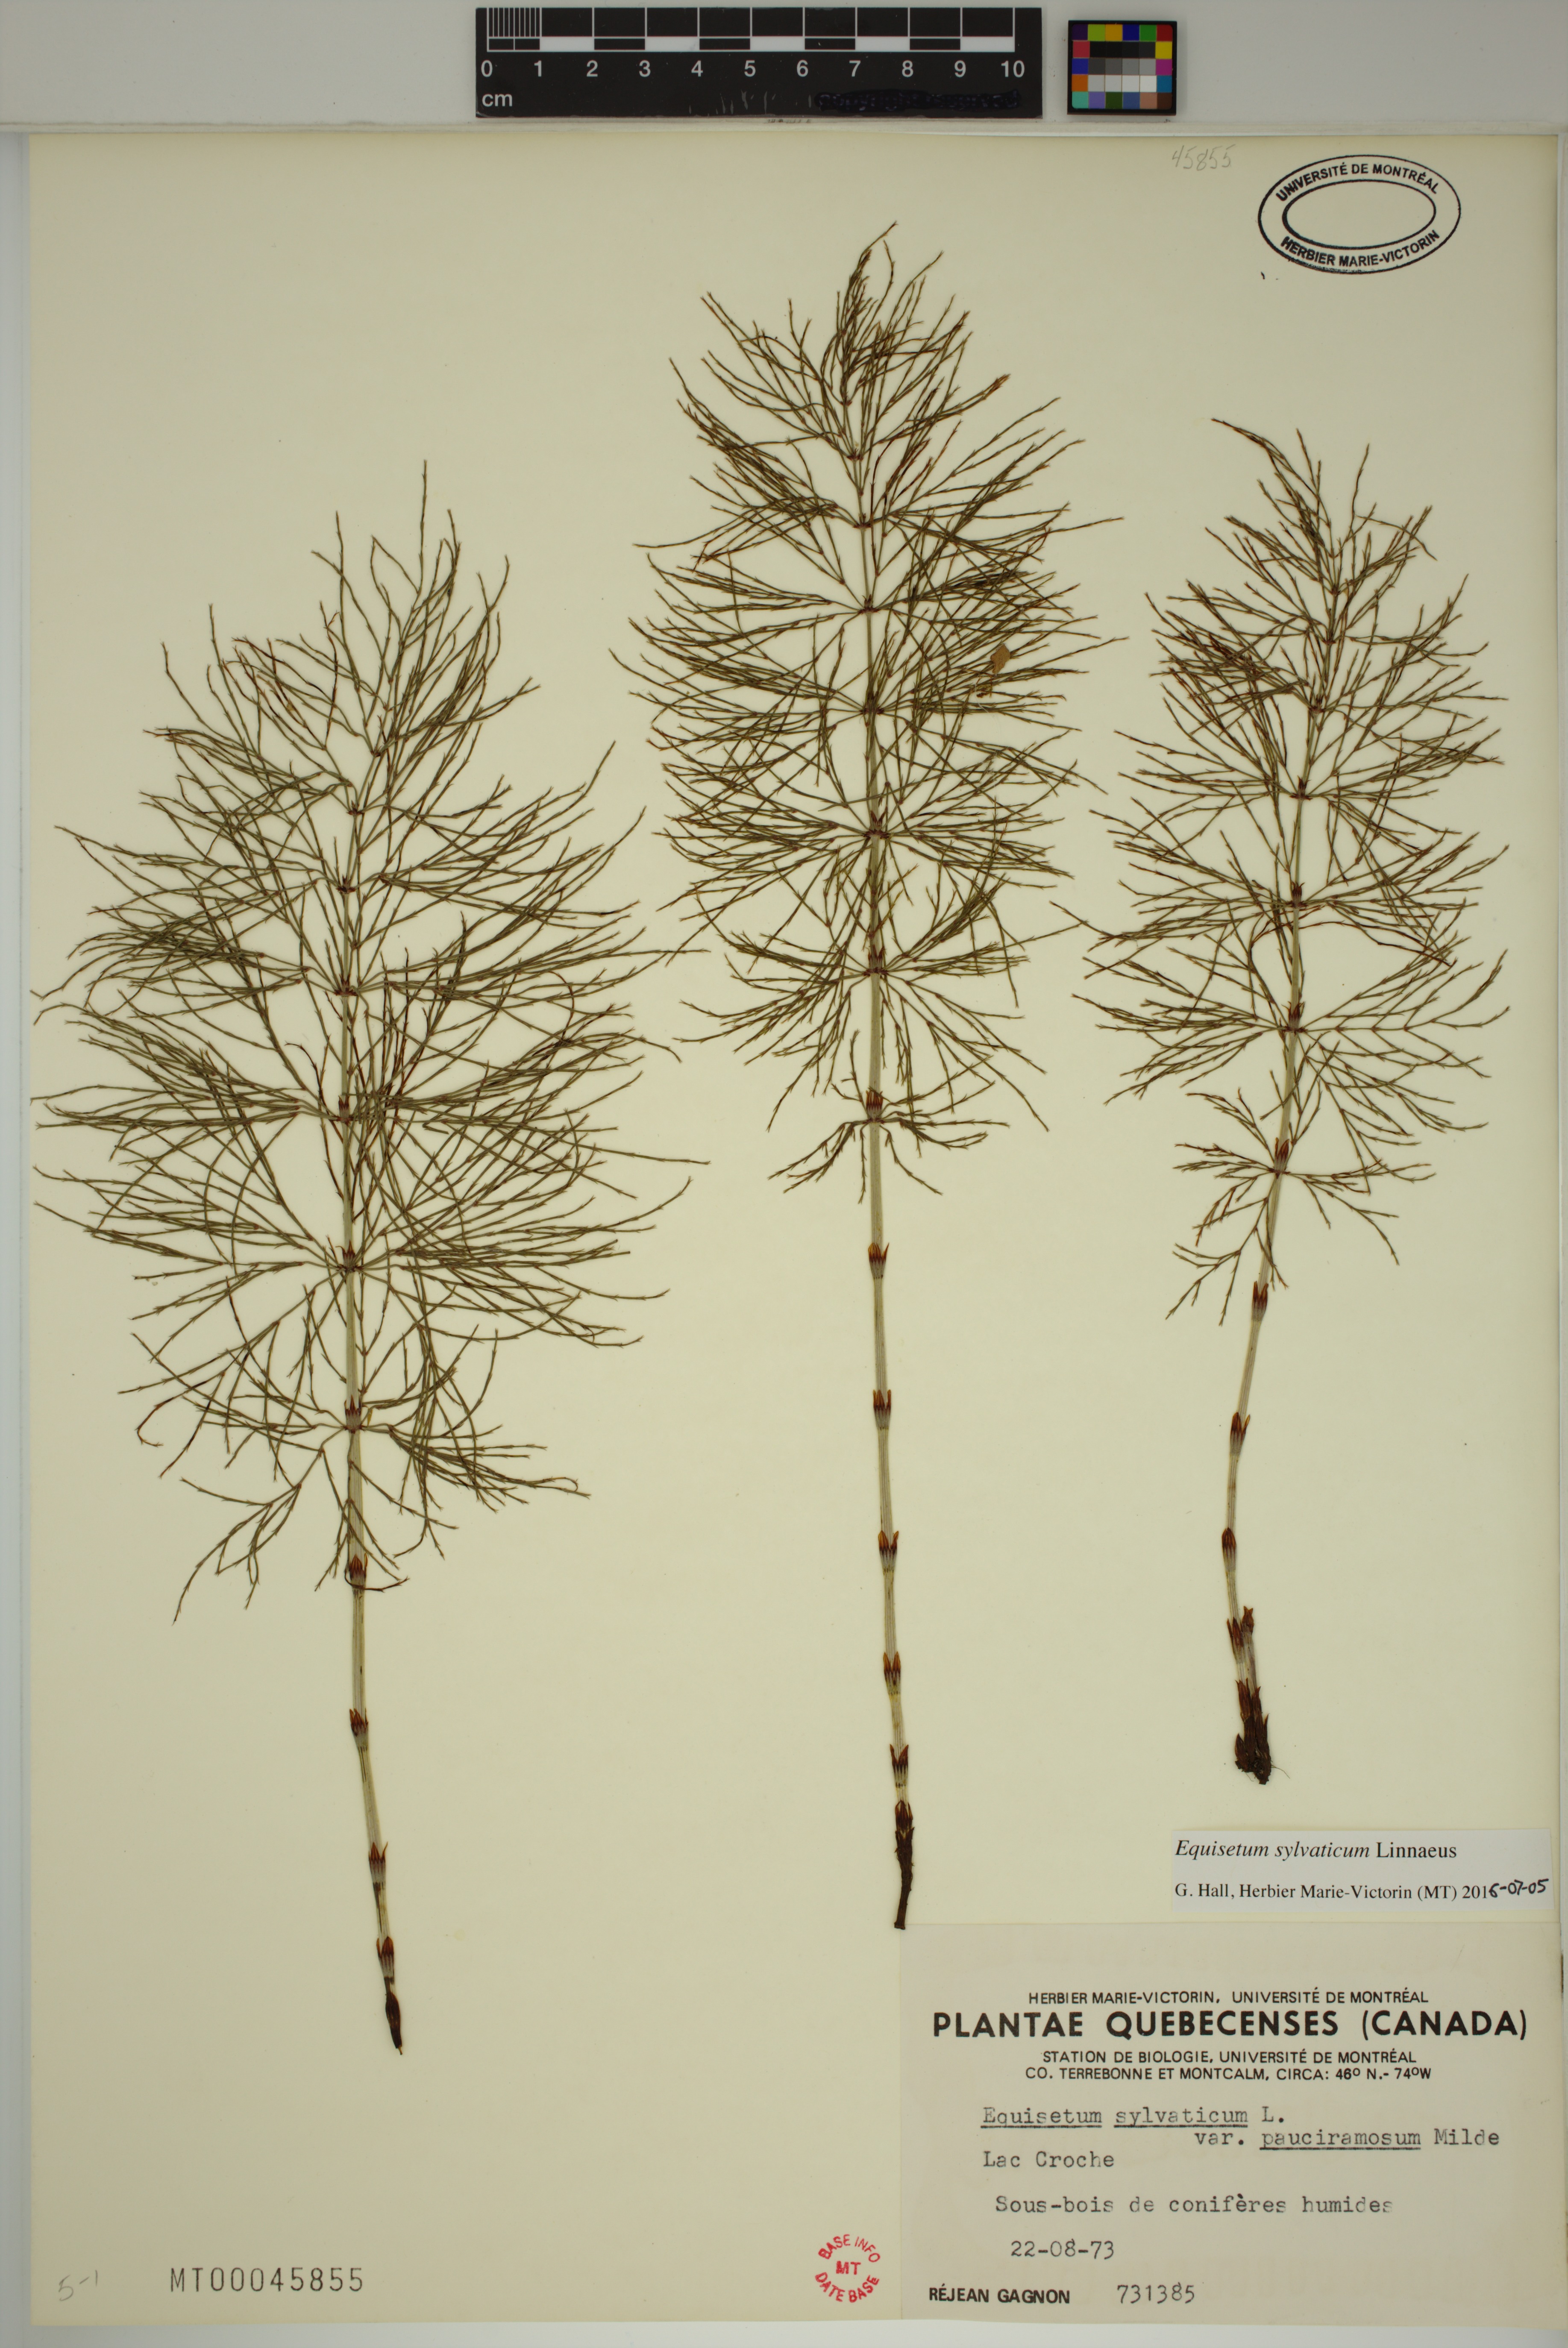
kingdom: Plantae
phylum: Tracheophyta
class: Polypodiopsida
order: Equisetales
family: Equisetaceae
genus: Equisetum
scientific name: Equisetum sylvaticum
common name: Wood horsetail
